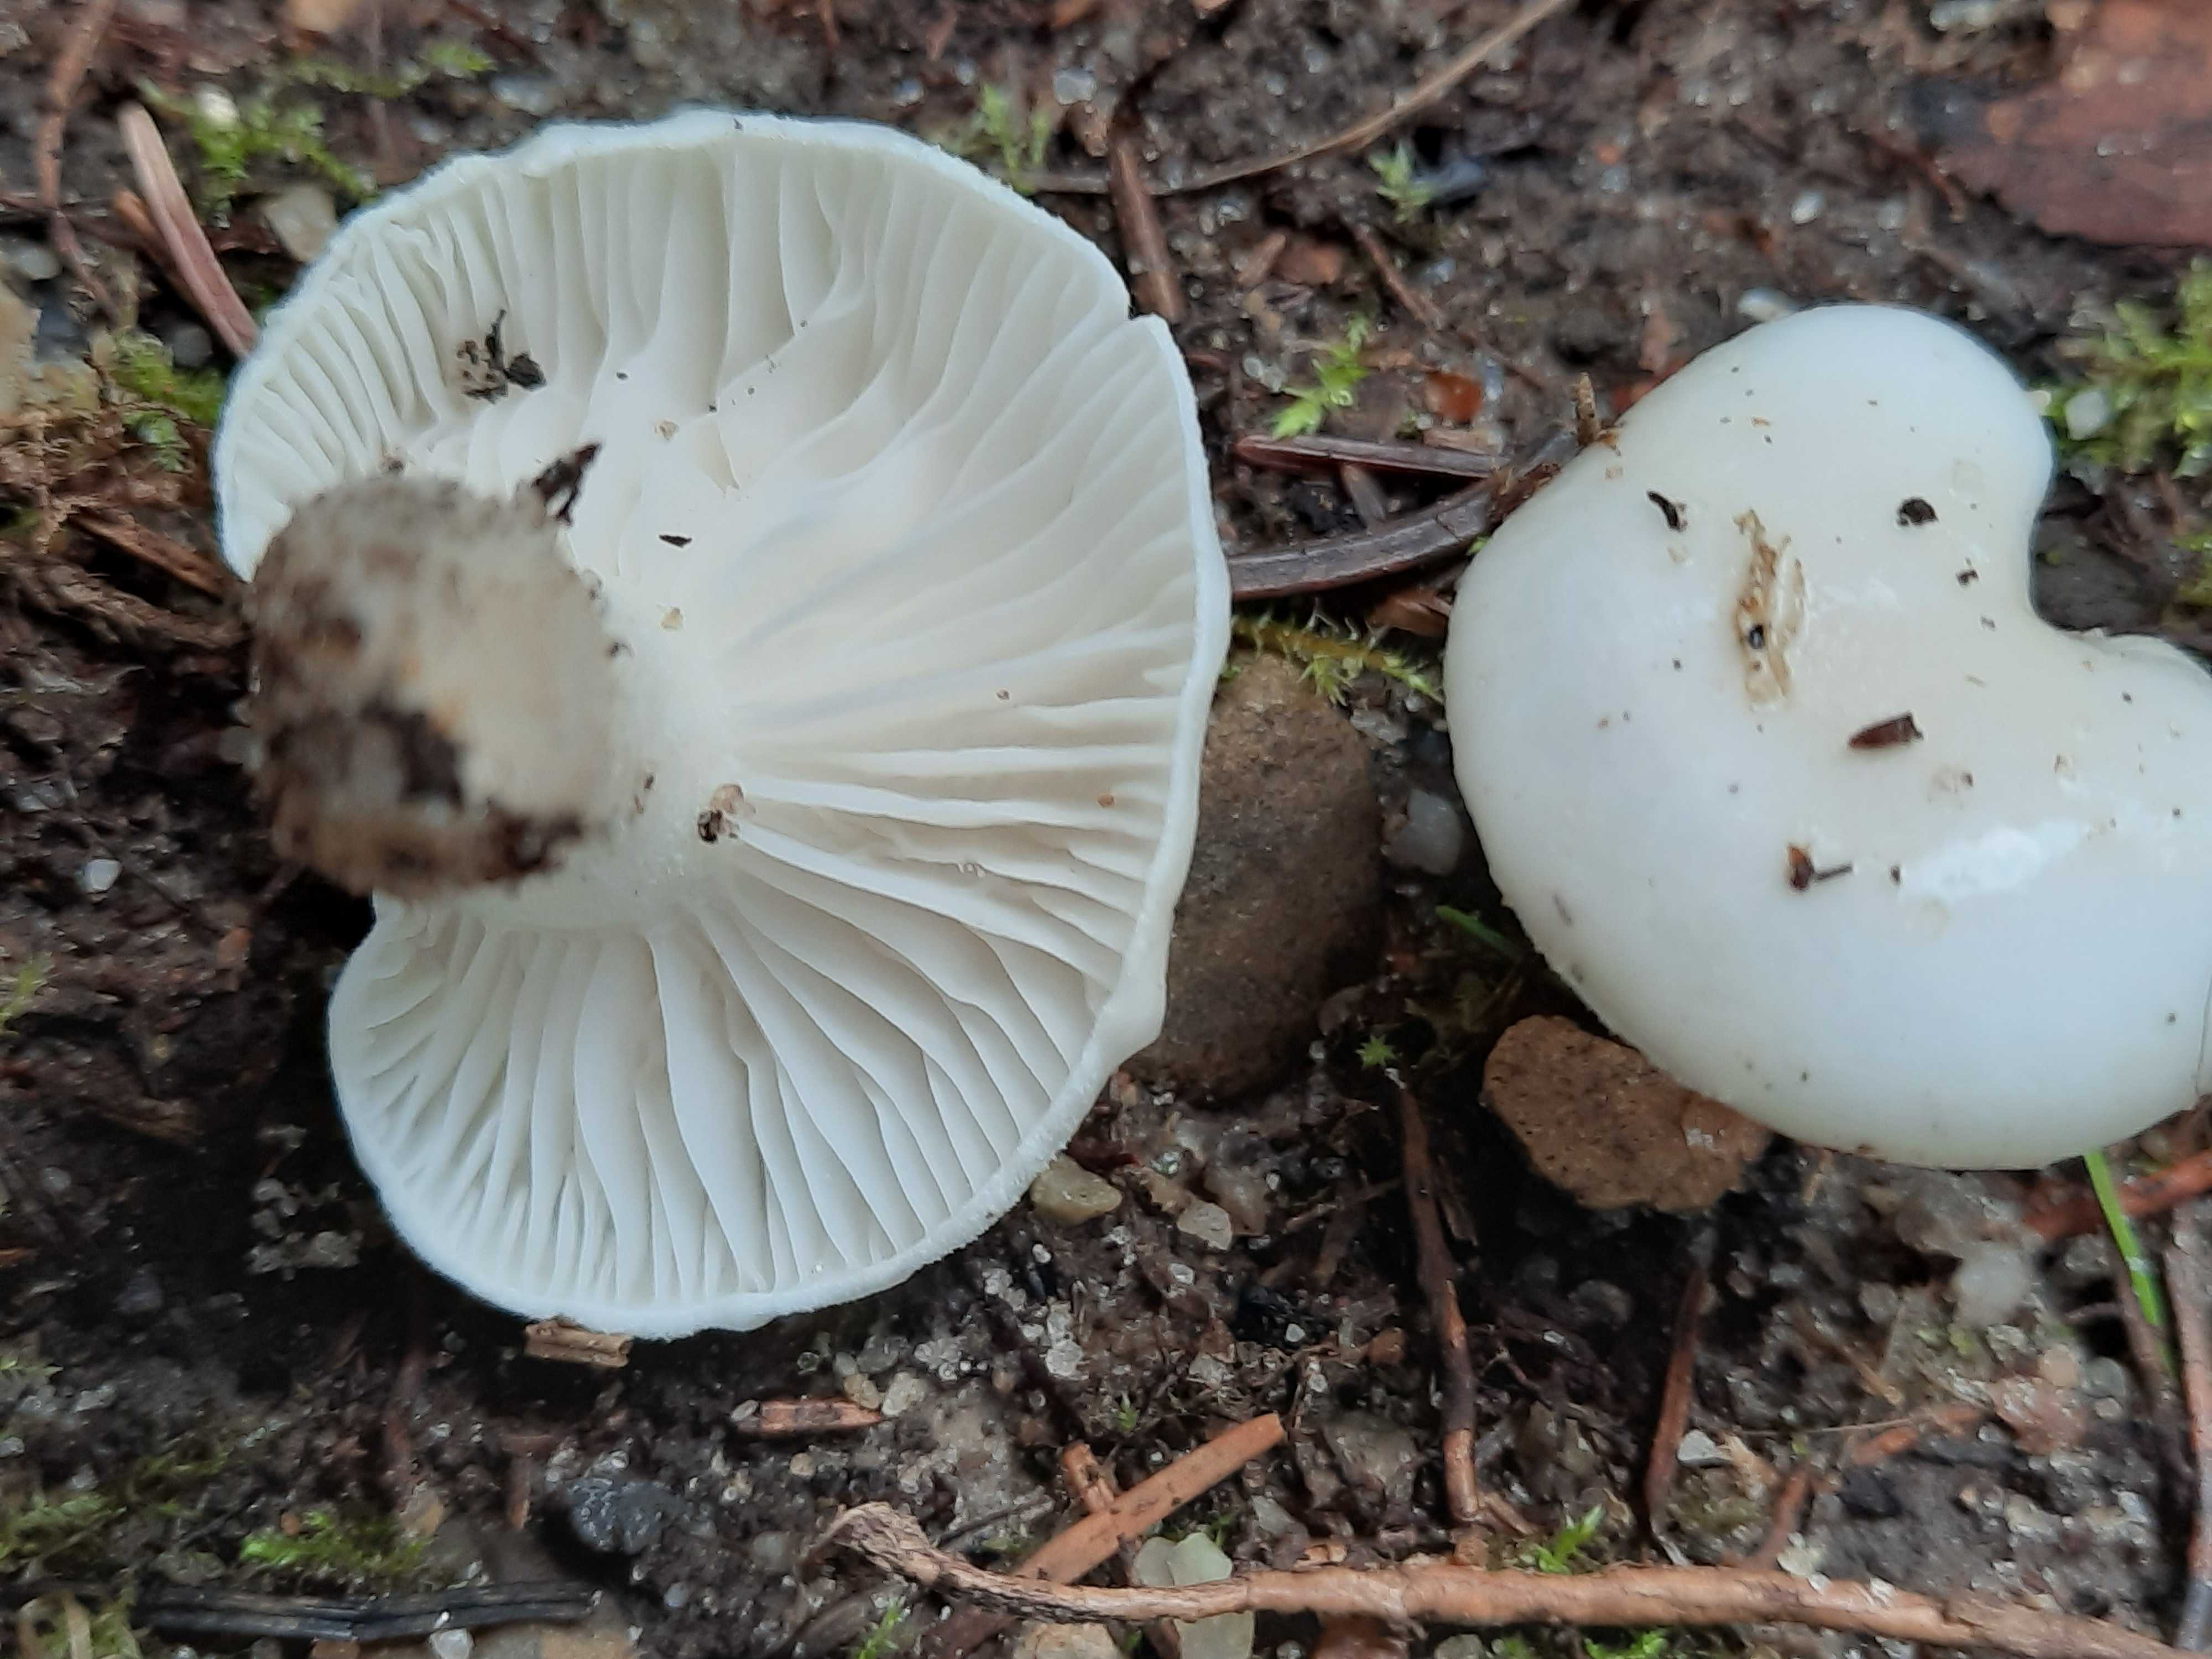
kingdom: Fungi
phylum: Basidiomycota
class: Agaricomycetes
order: Agaricales
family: Hygrophoraceae
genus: Hygrophorus
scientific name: Hygrophorus agathosmus
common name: vellugtende sneglehat
